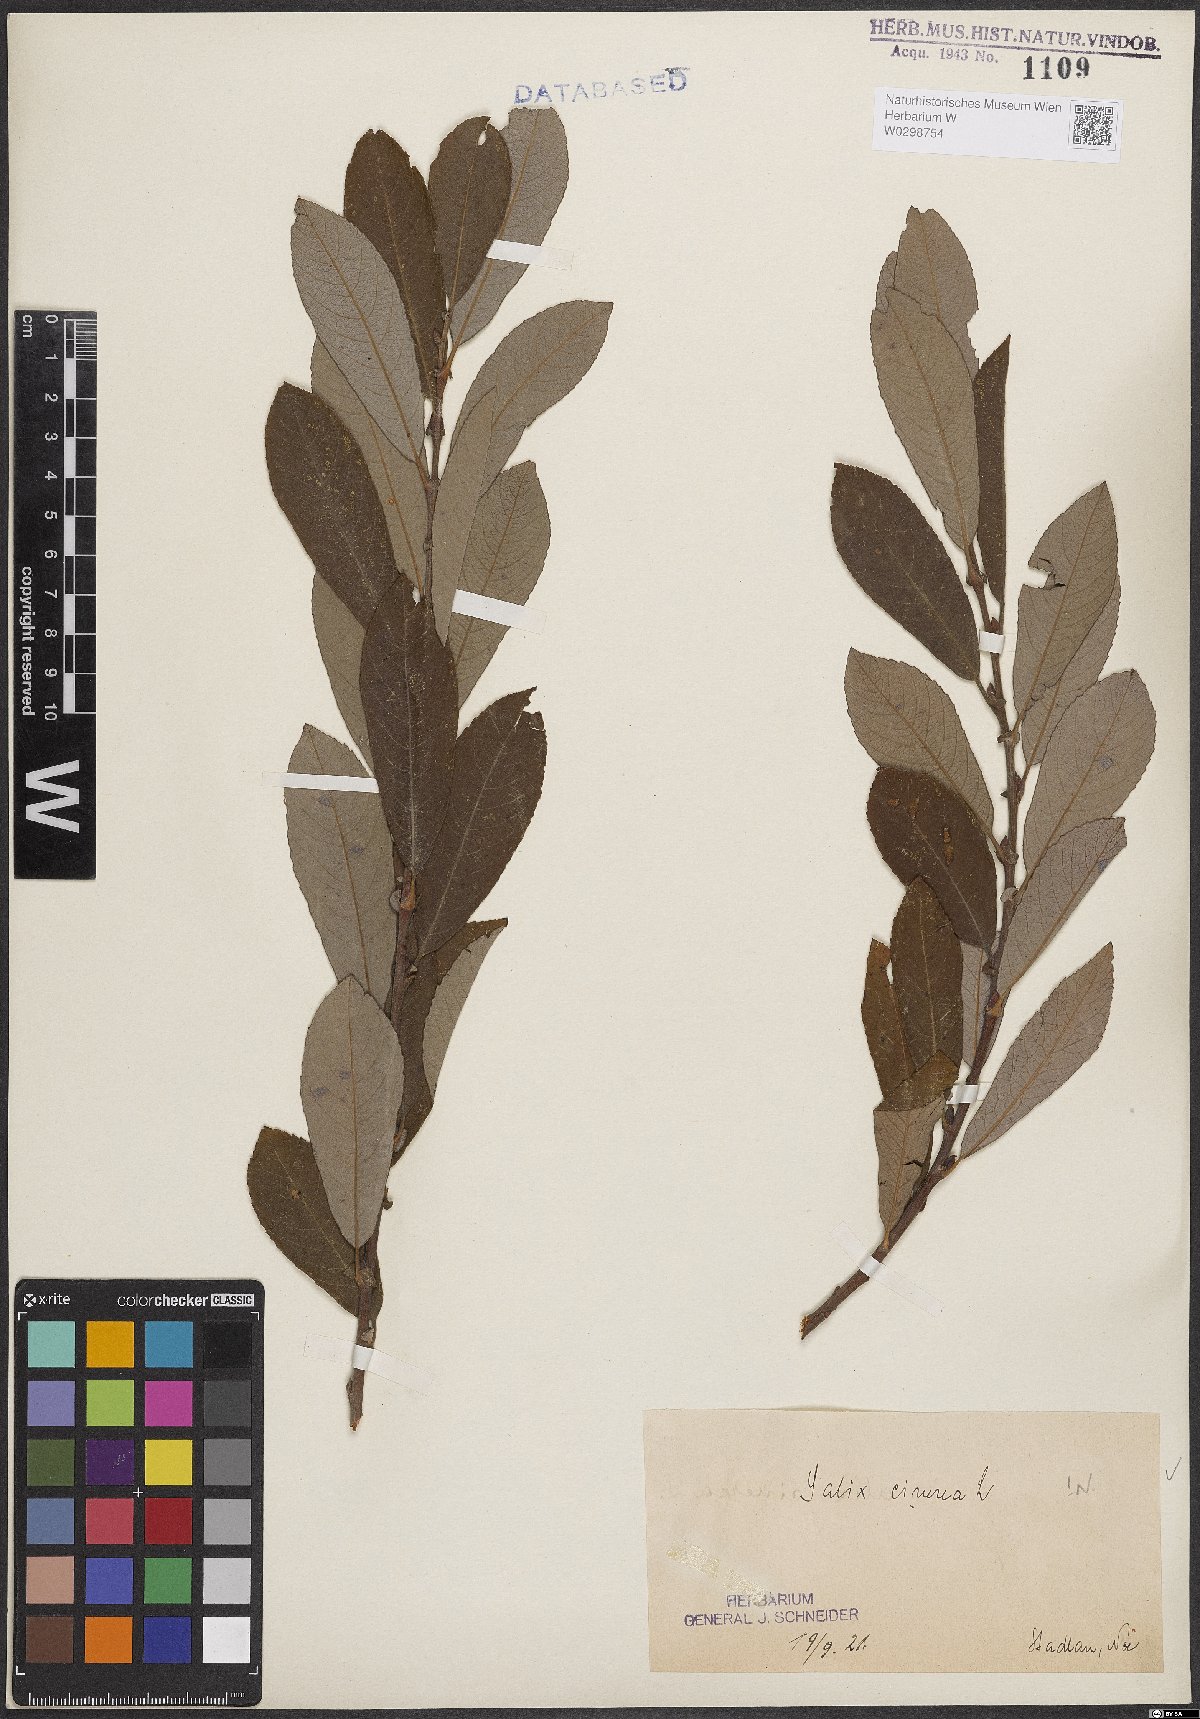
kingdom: Plantae
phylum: Tracheophyta
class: Magnoliopsida
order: Malpighiales
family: Salicaceae
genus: Salix
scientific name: Salix cinerea
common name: Common sallow
